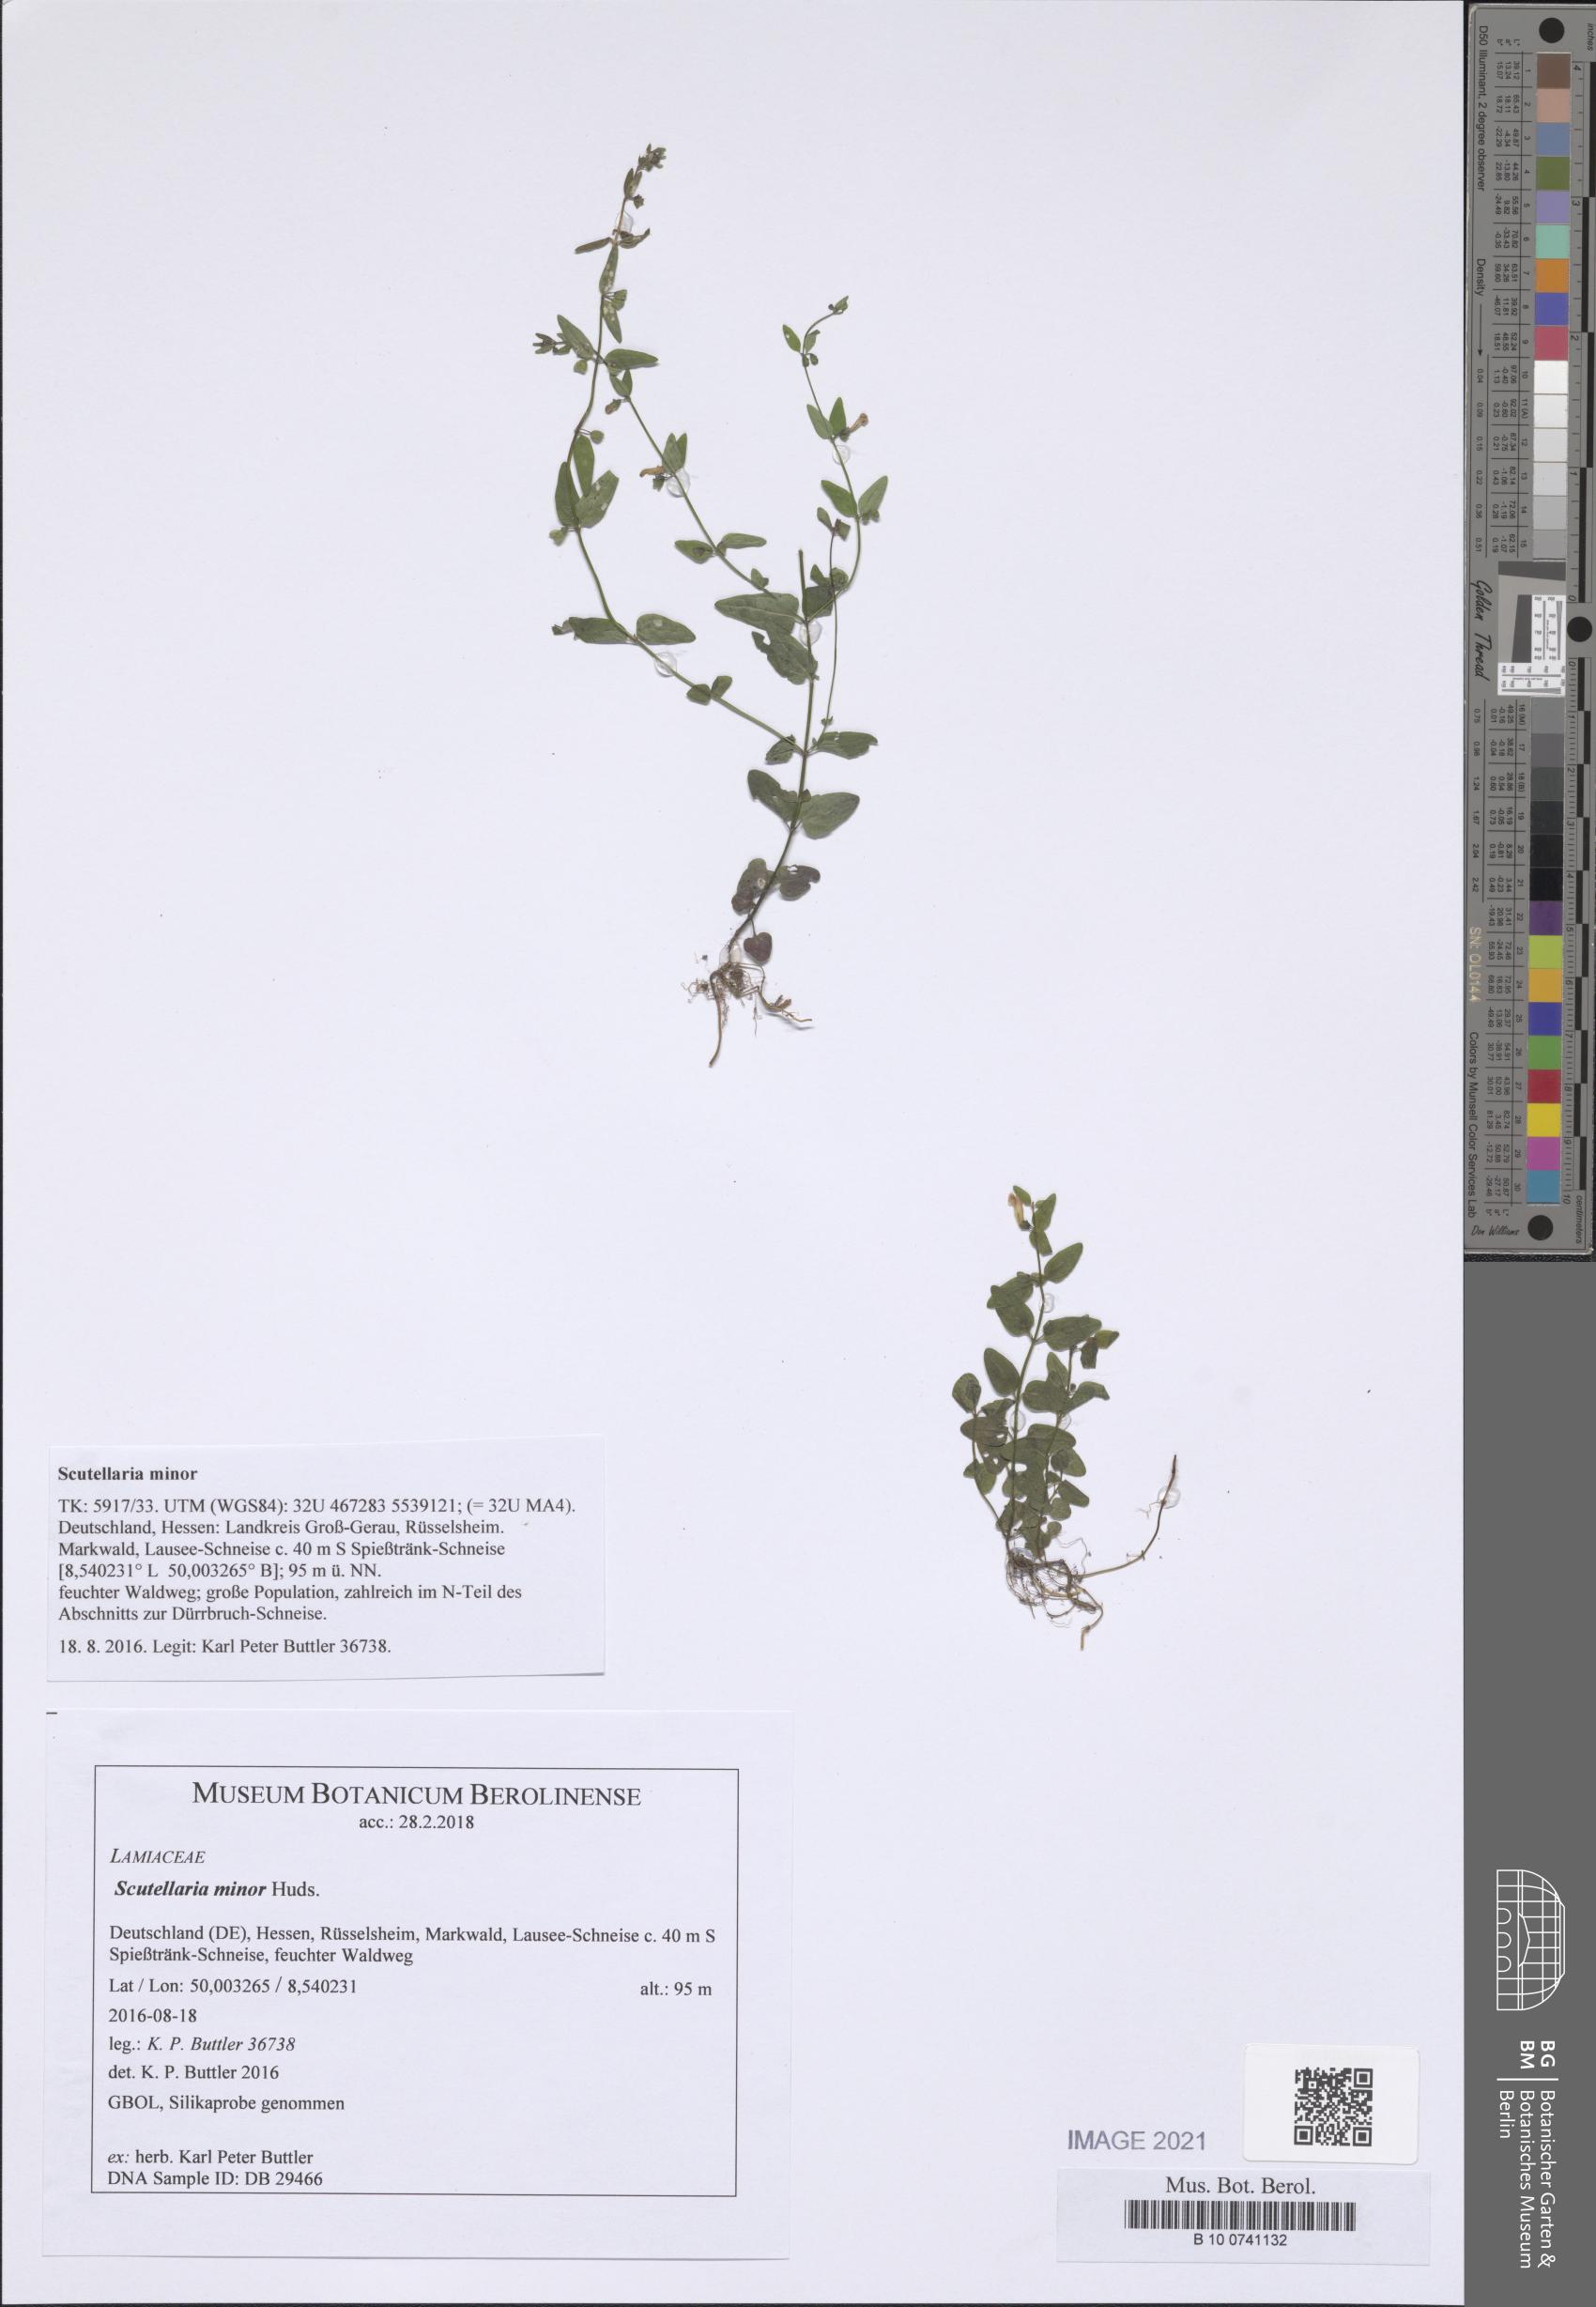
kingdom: Plantae
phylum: Tracheophyta
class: Magnoliopsida
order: Lamiales
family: Lamiaceae
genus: Scutellaria
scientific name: Scutellaria minor
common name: Lesser skullcap
